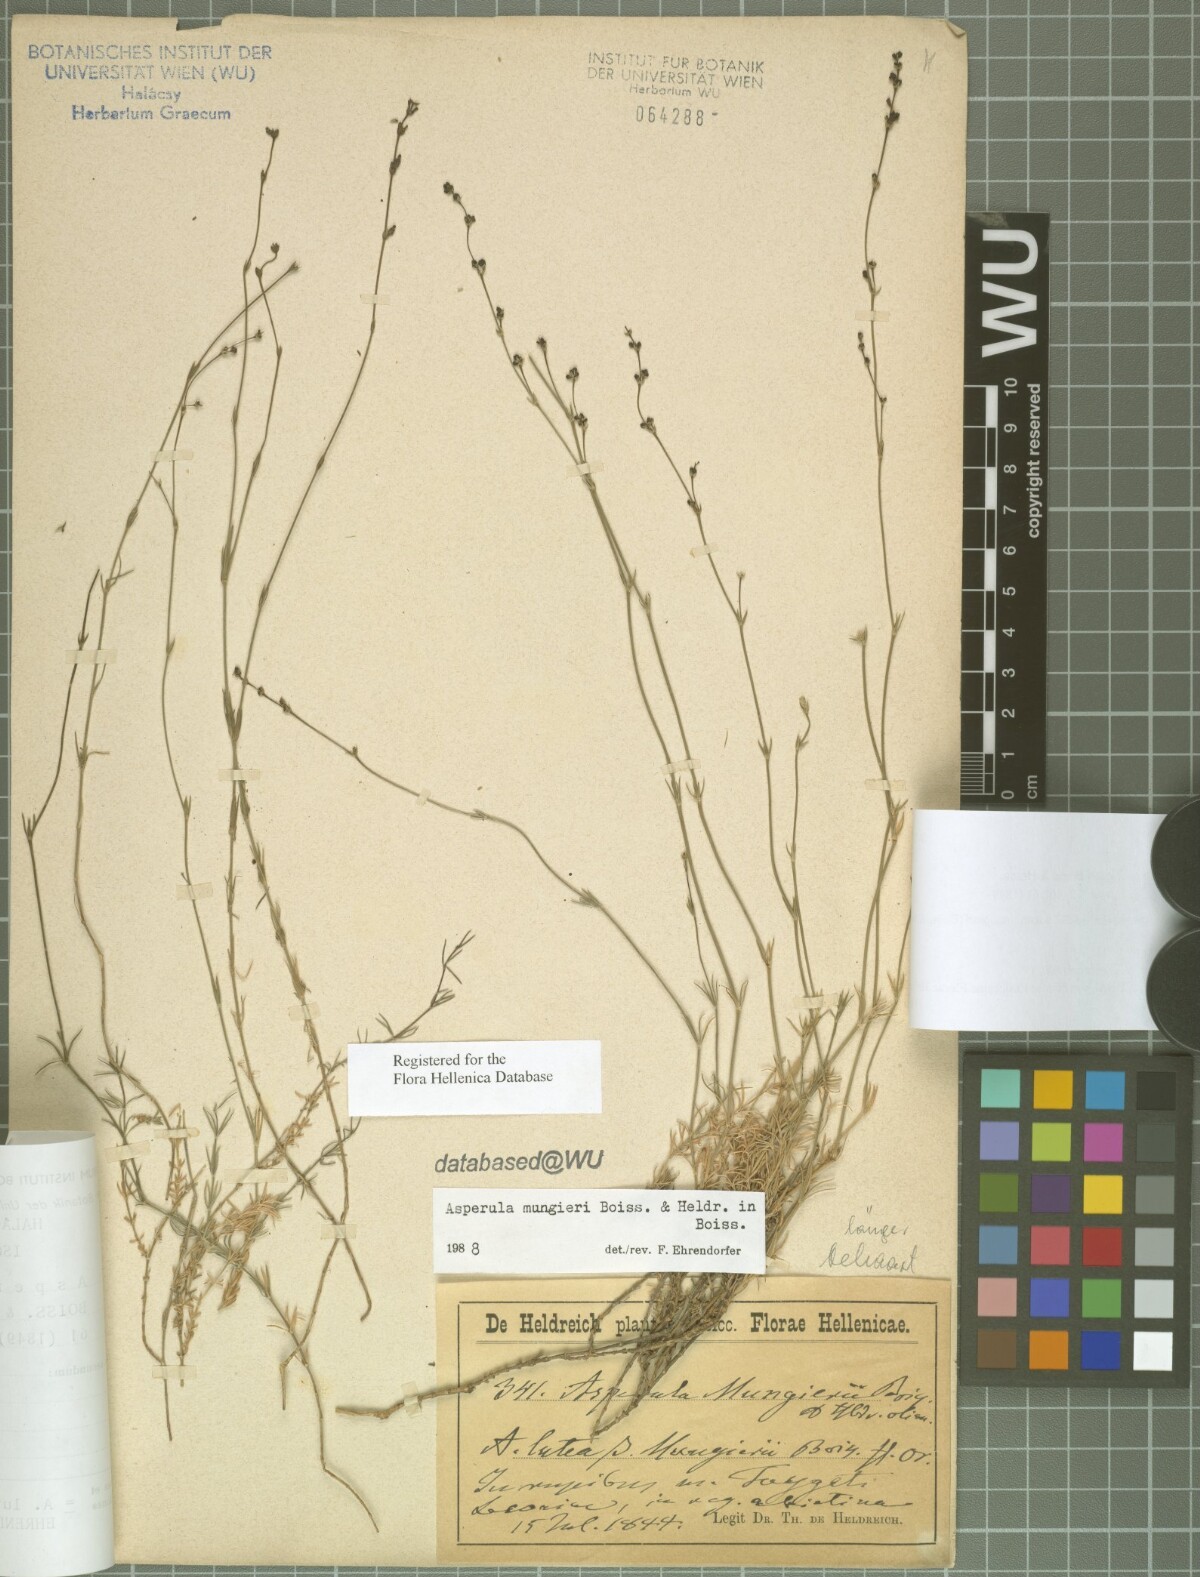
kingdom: Plantae
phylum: Tracheophyta
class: Magnoliopsida
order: Gentianales
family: Rubiaceae
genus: Cynanchica
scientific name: Cynanchica mungieri
